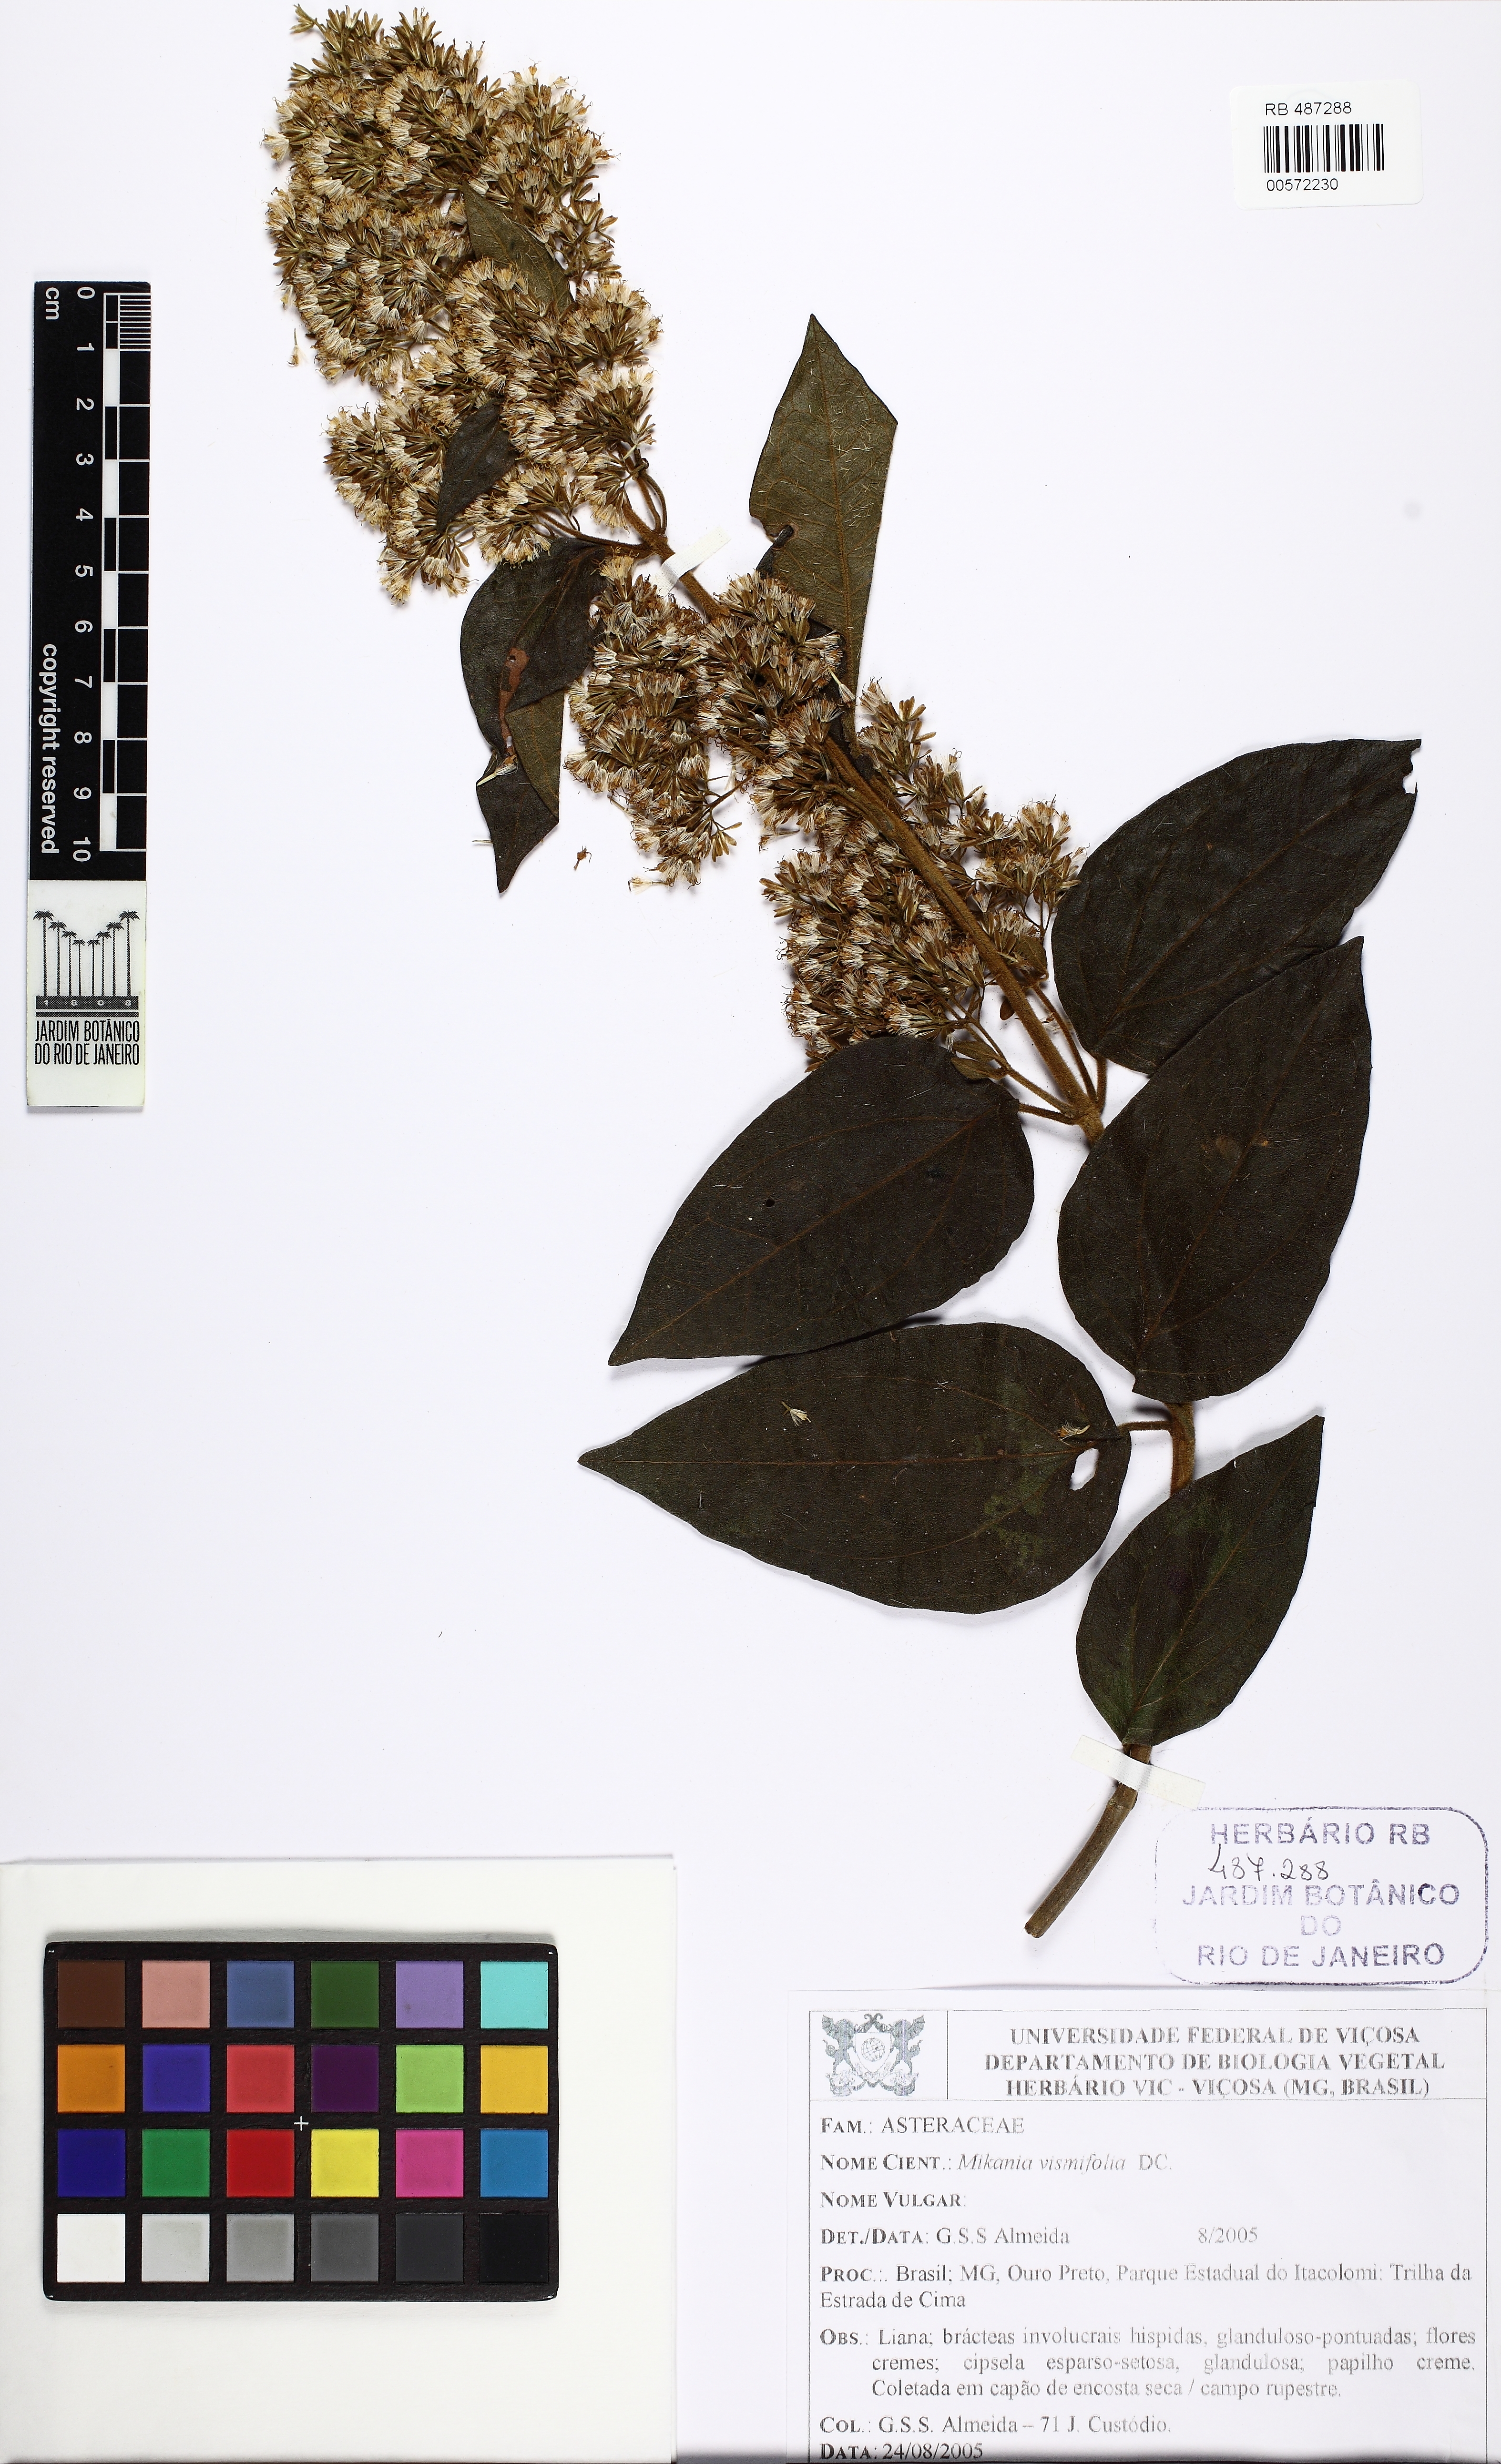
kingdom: Plantae
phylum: Tracheophyta
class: Magnoliopsida
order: Asterales
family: Asteraceae
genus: Mikania
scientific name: Mikania vismiifolia
